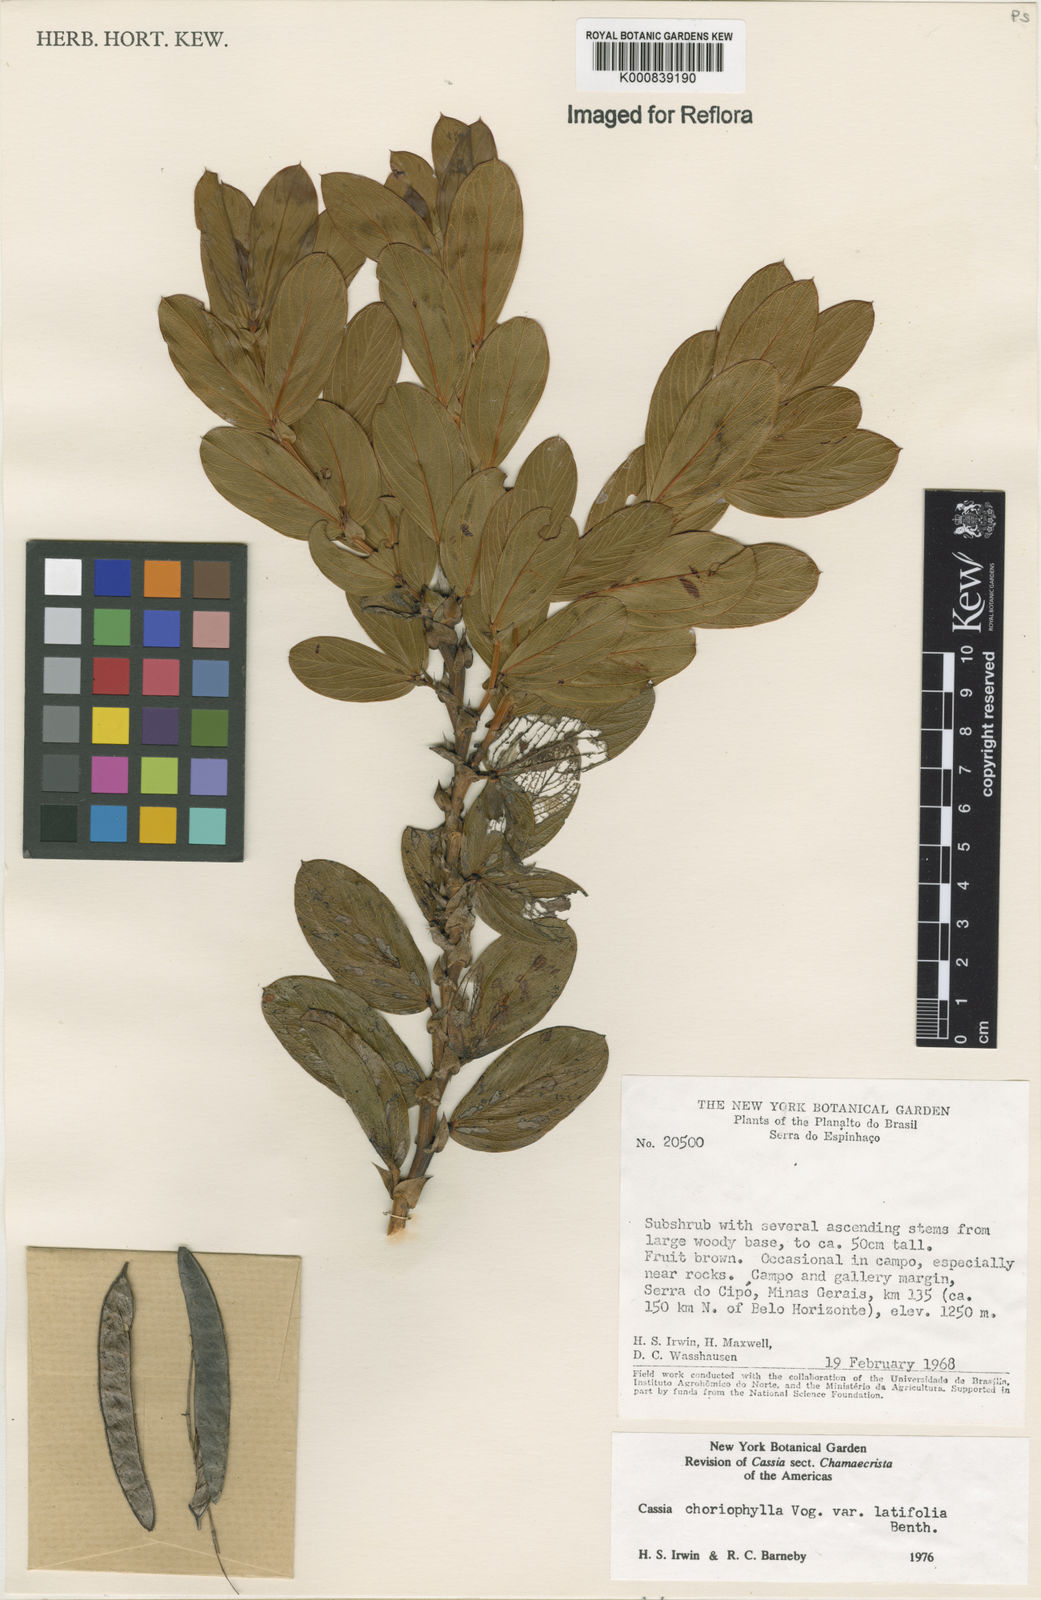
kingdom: Plantae
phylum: Tracheophyta
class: Magnoliopsida
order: Fabales
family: Fabaceae
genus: Chamaecrista
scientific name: Chamaecrista latifolia
